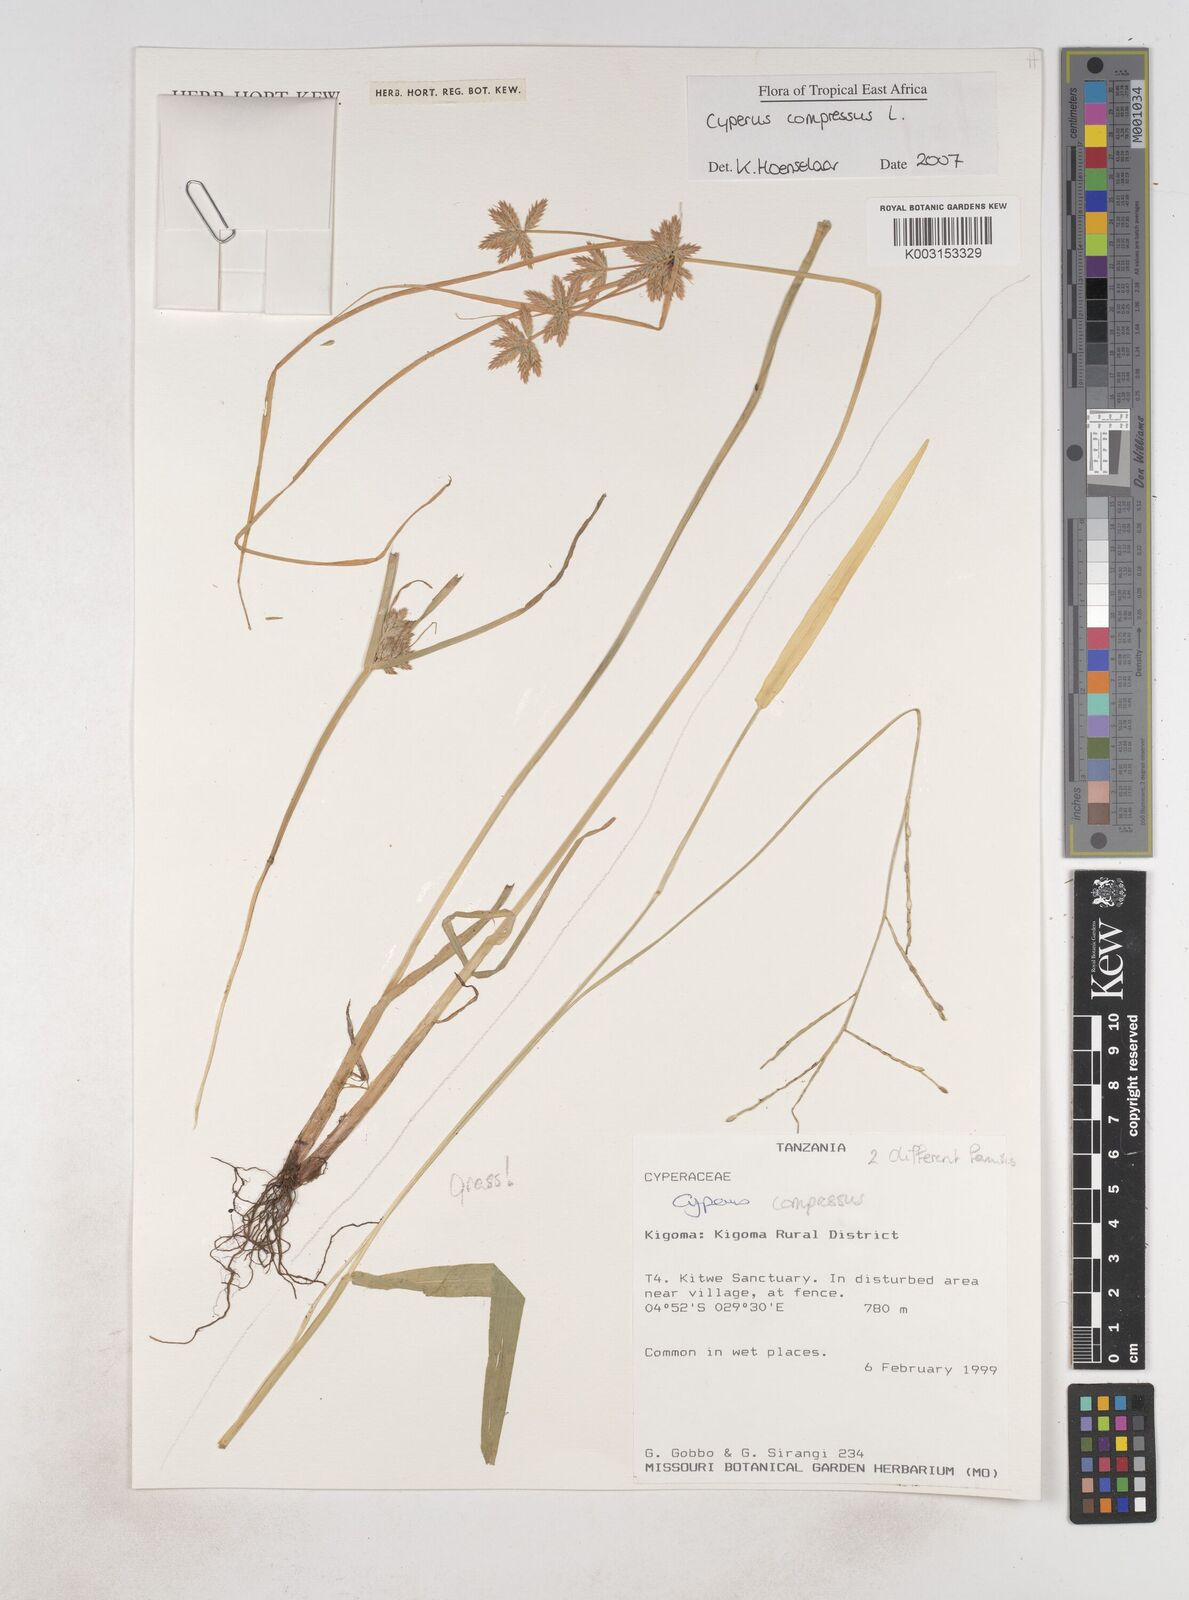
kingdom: Plantae
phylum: Tracheophyta
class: Liliopsida
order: Poales
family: Cyperaceae
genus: Cyperus
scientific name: Cyperus compressus
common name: Poorland flatsedge
